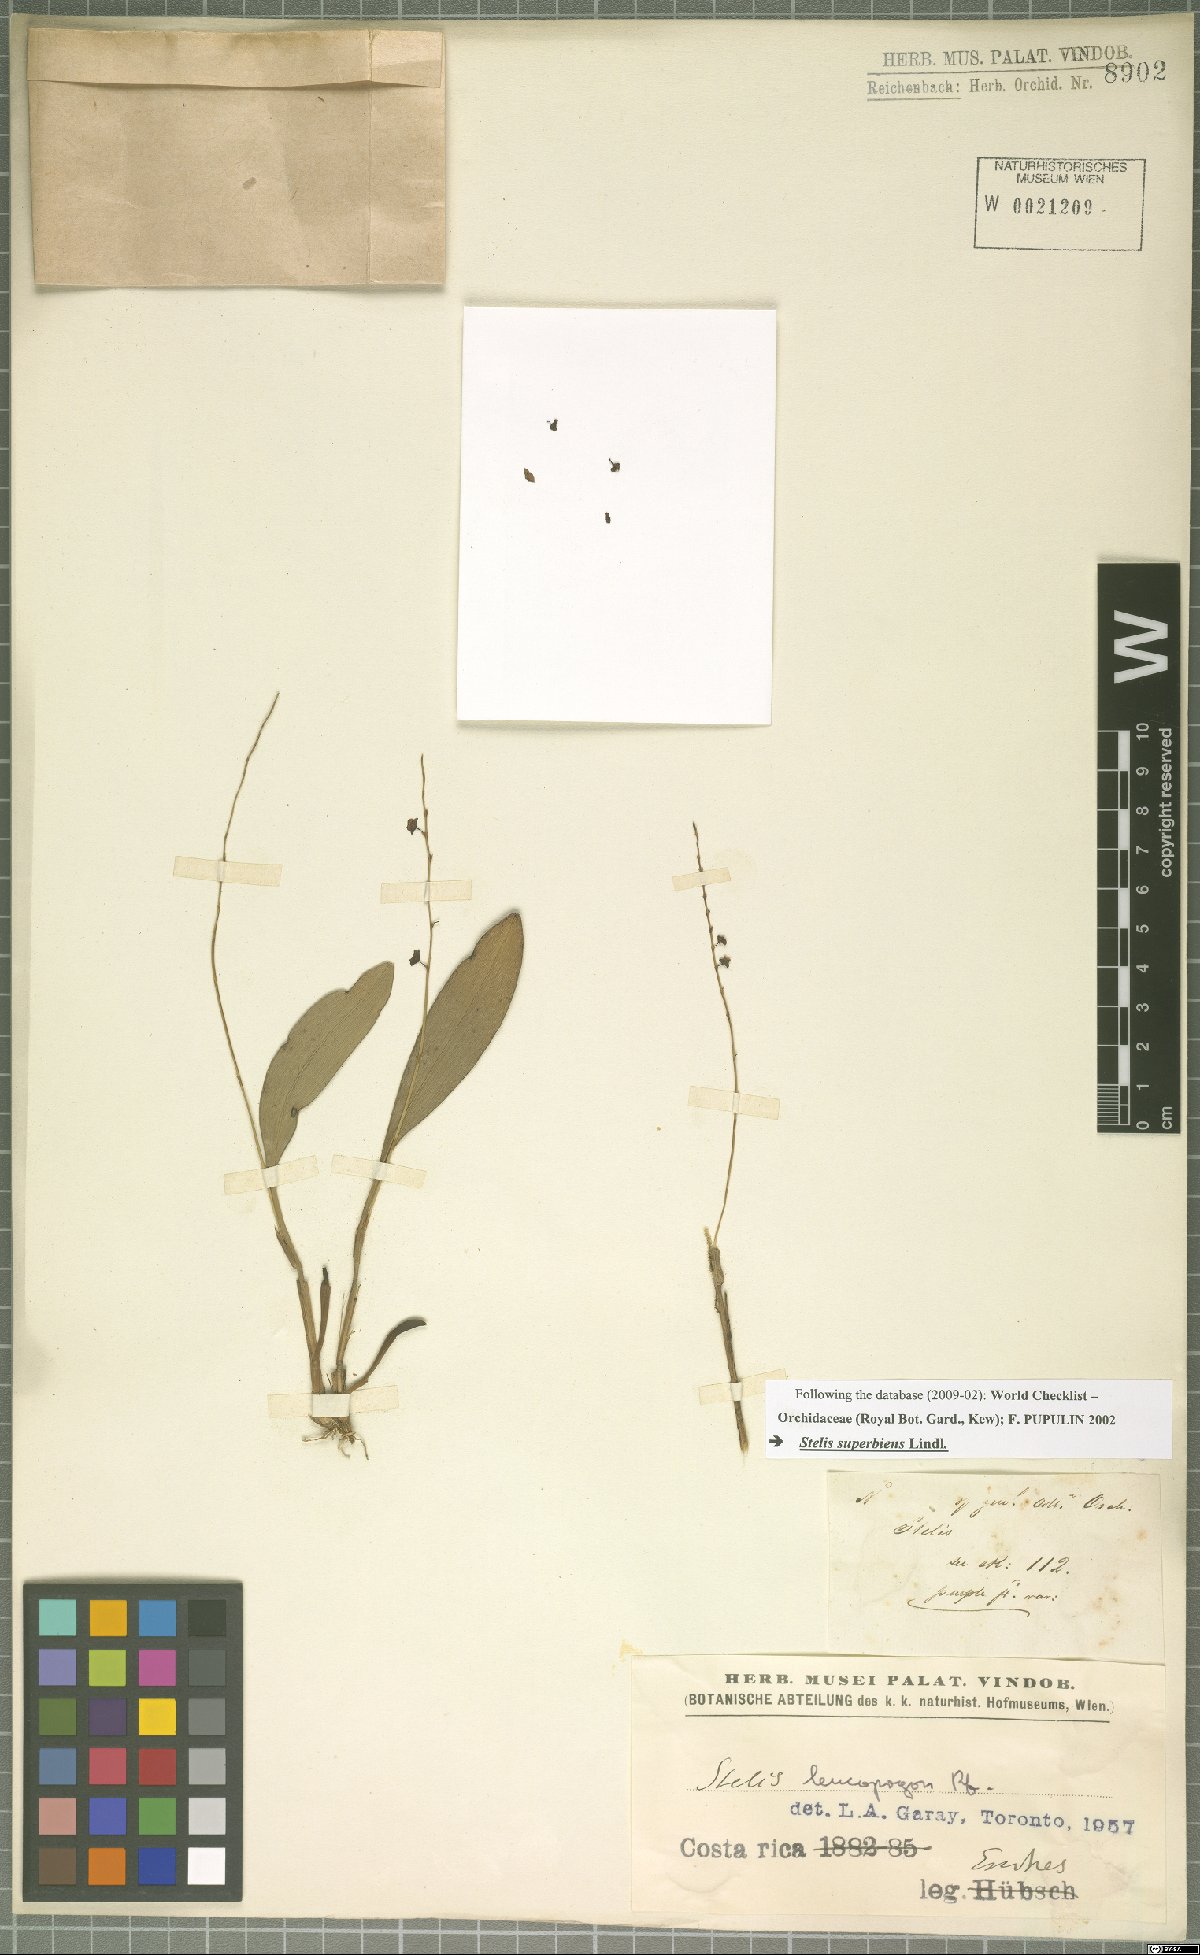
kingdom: Plantae
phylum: Tracheophyta
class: Liliopsida
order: Asparagales
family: Orchidaceae
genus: Stelis
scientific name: Stelis superbiens
